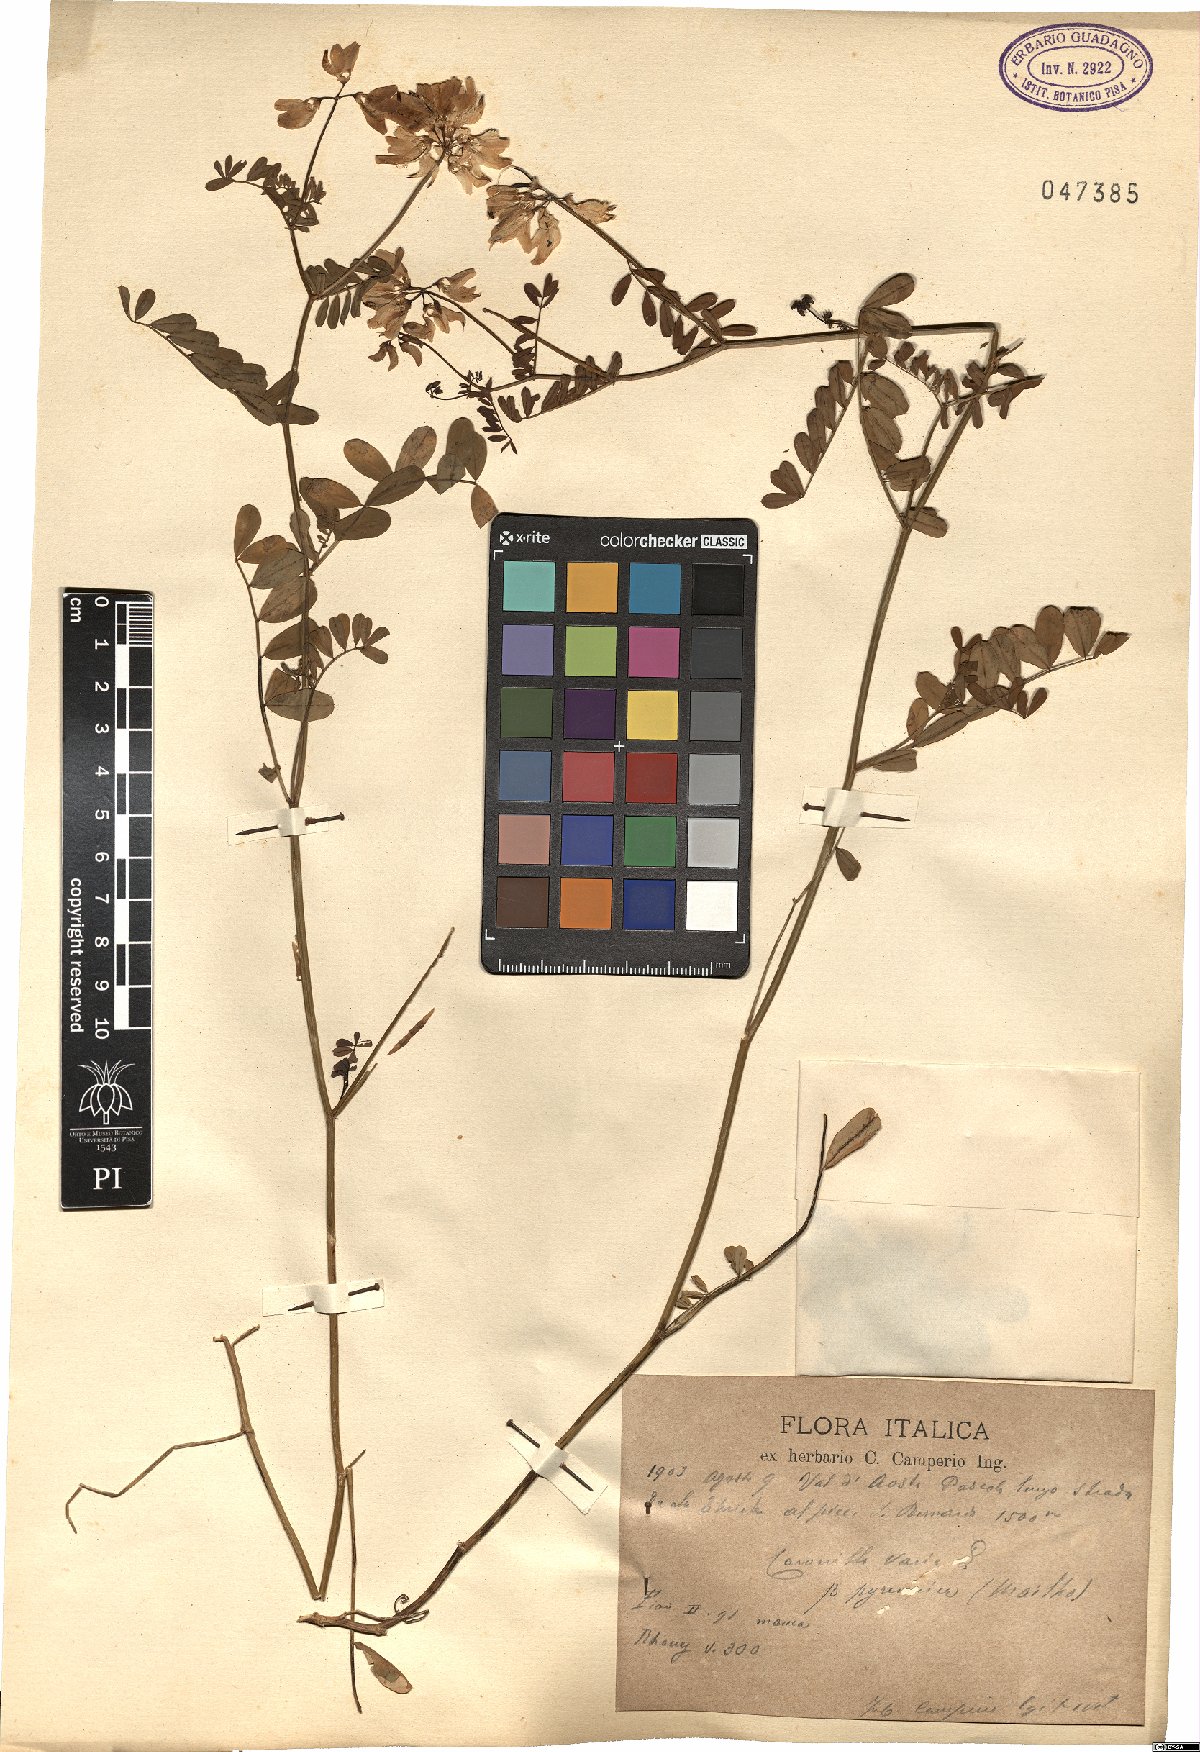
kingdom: Plantae
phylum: Tracheophyta
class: Magnoliopsida
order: Fabales
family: Fabaceae
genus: Coronilla
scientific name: Coronilla varia
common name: Crownvetch
